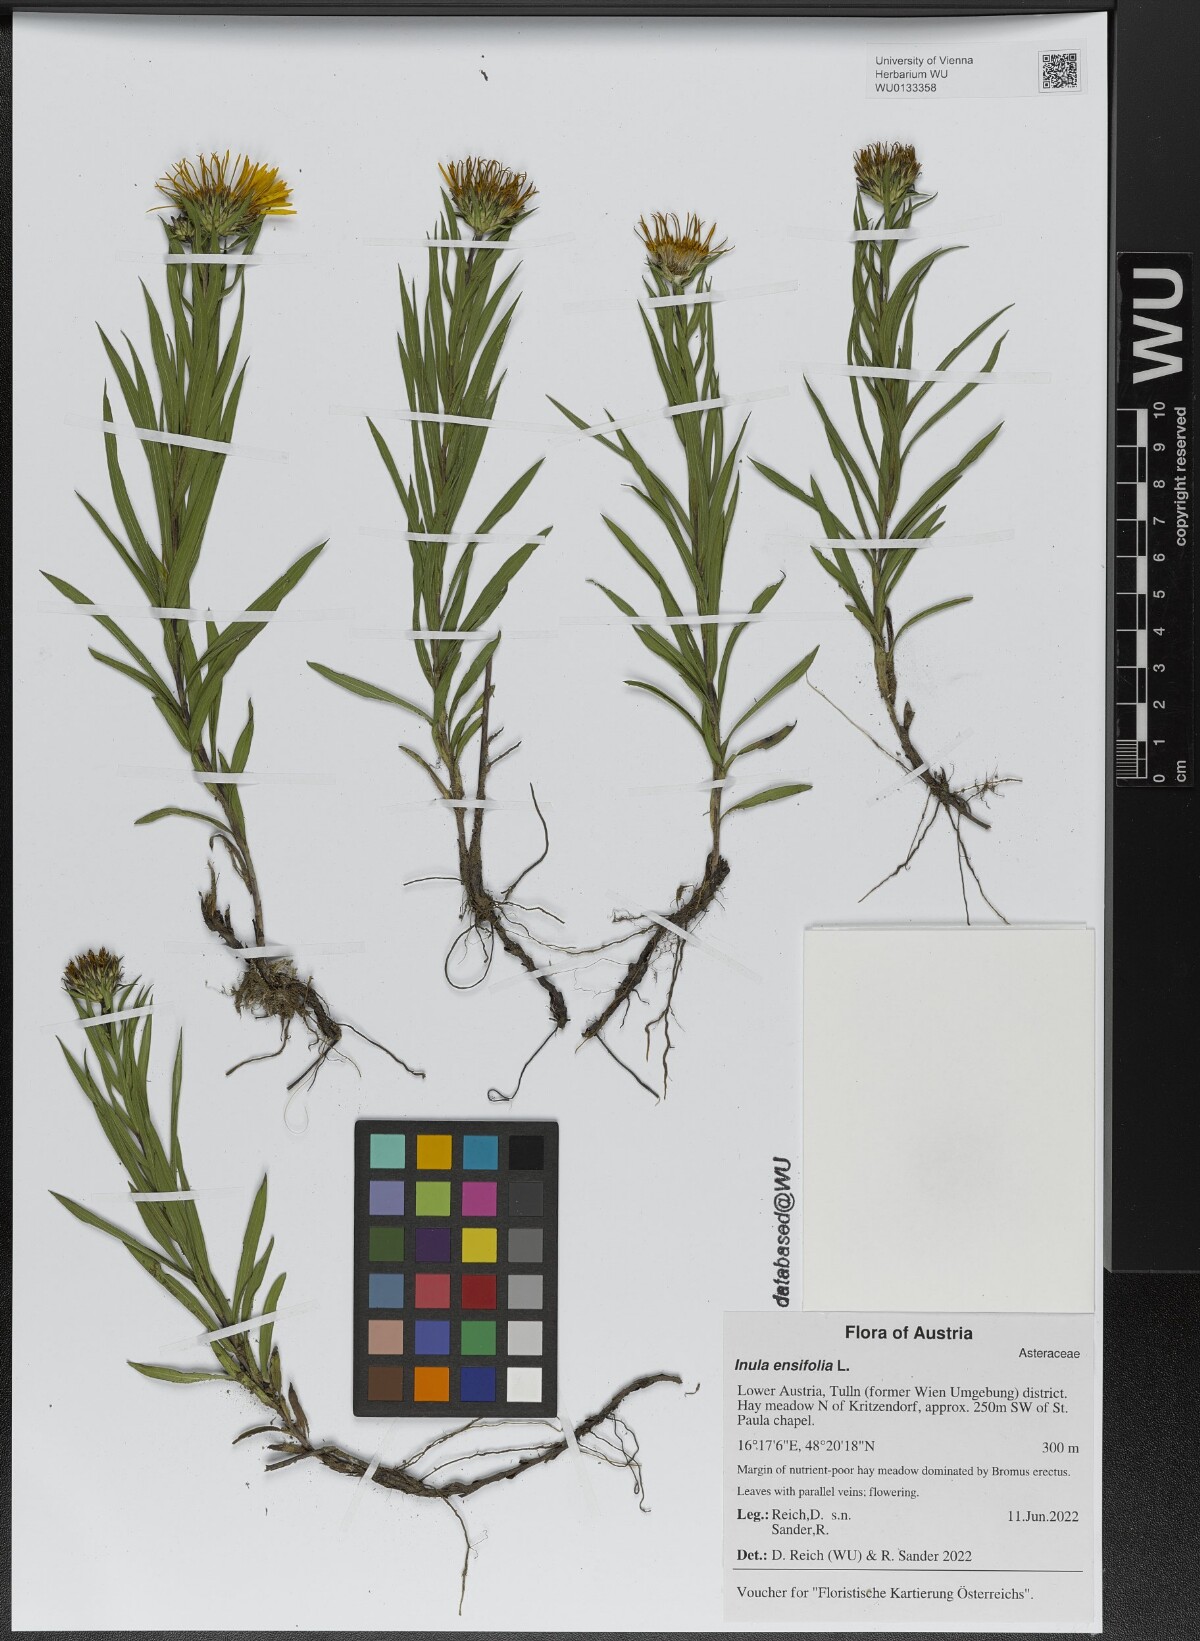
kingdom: Plantae
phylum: Tracheophyta
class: Magnoliopsida
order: Asterales
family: Asteraceae
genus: Pentanema
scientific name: Pentanema ensifolium
